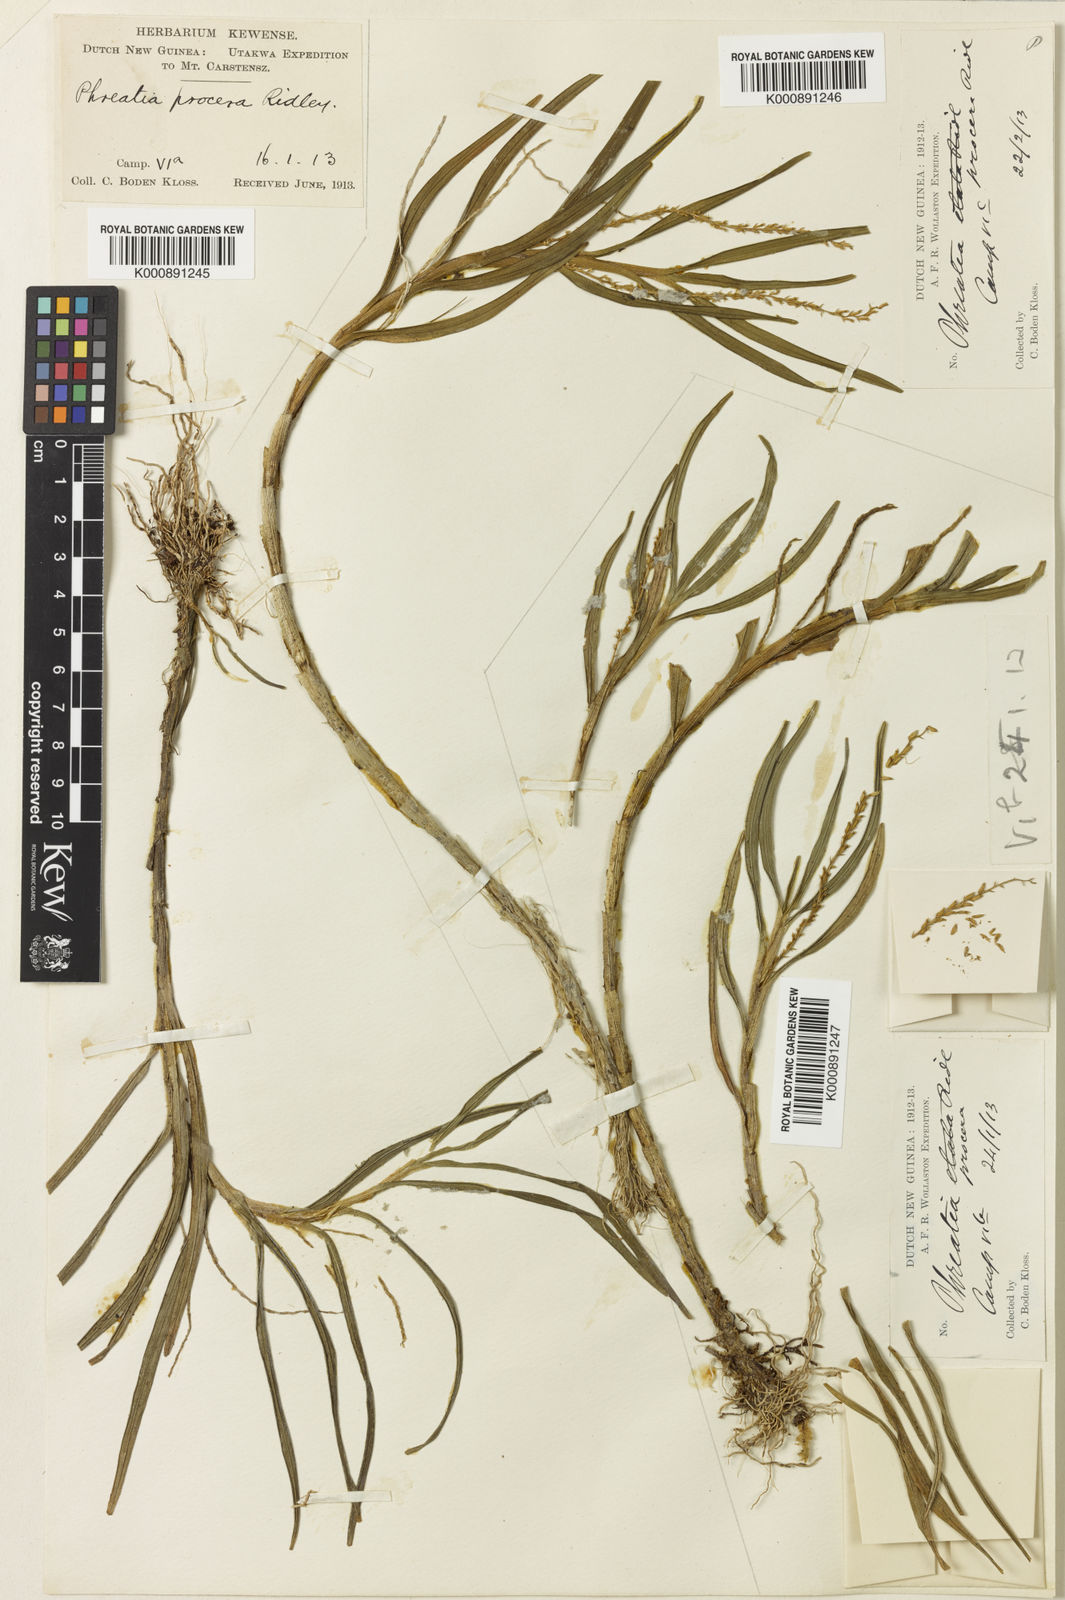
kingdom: Plantae
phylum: Tracheophyta
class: Liliopsida
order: Asparagales
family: Orchidaceae
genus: Phreatia
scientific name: Phreatia longicaulis
